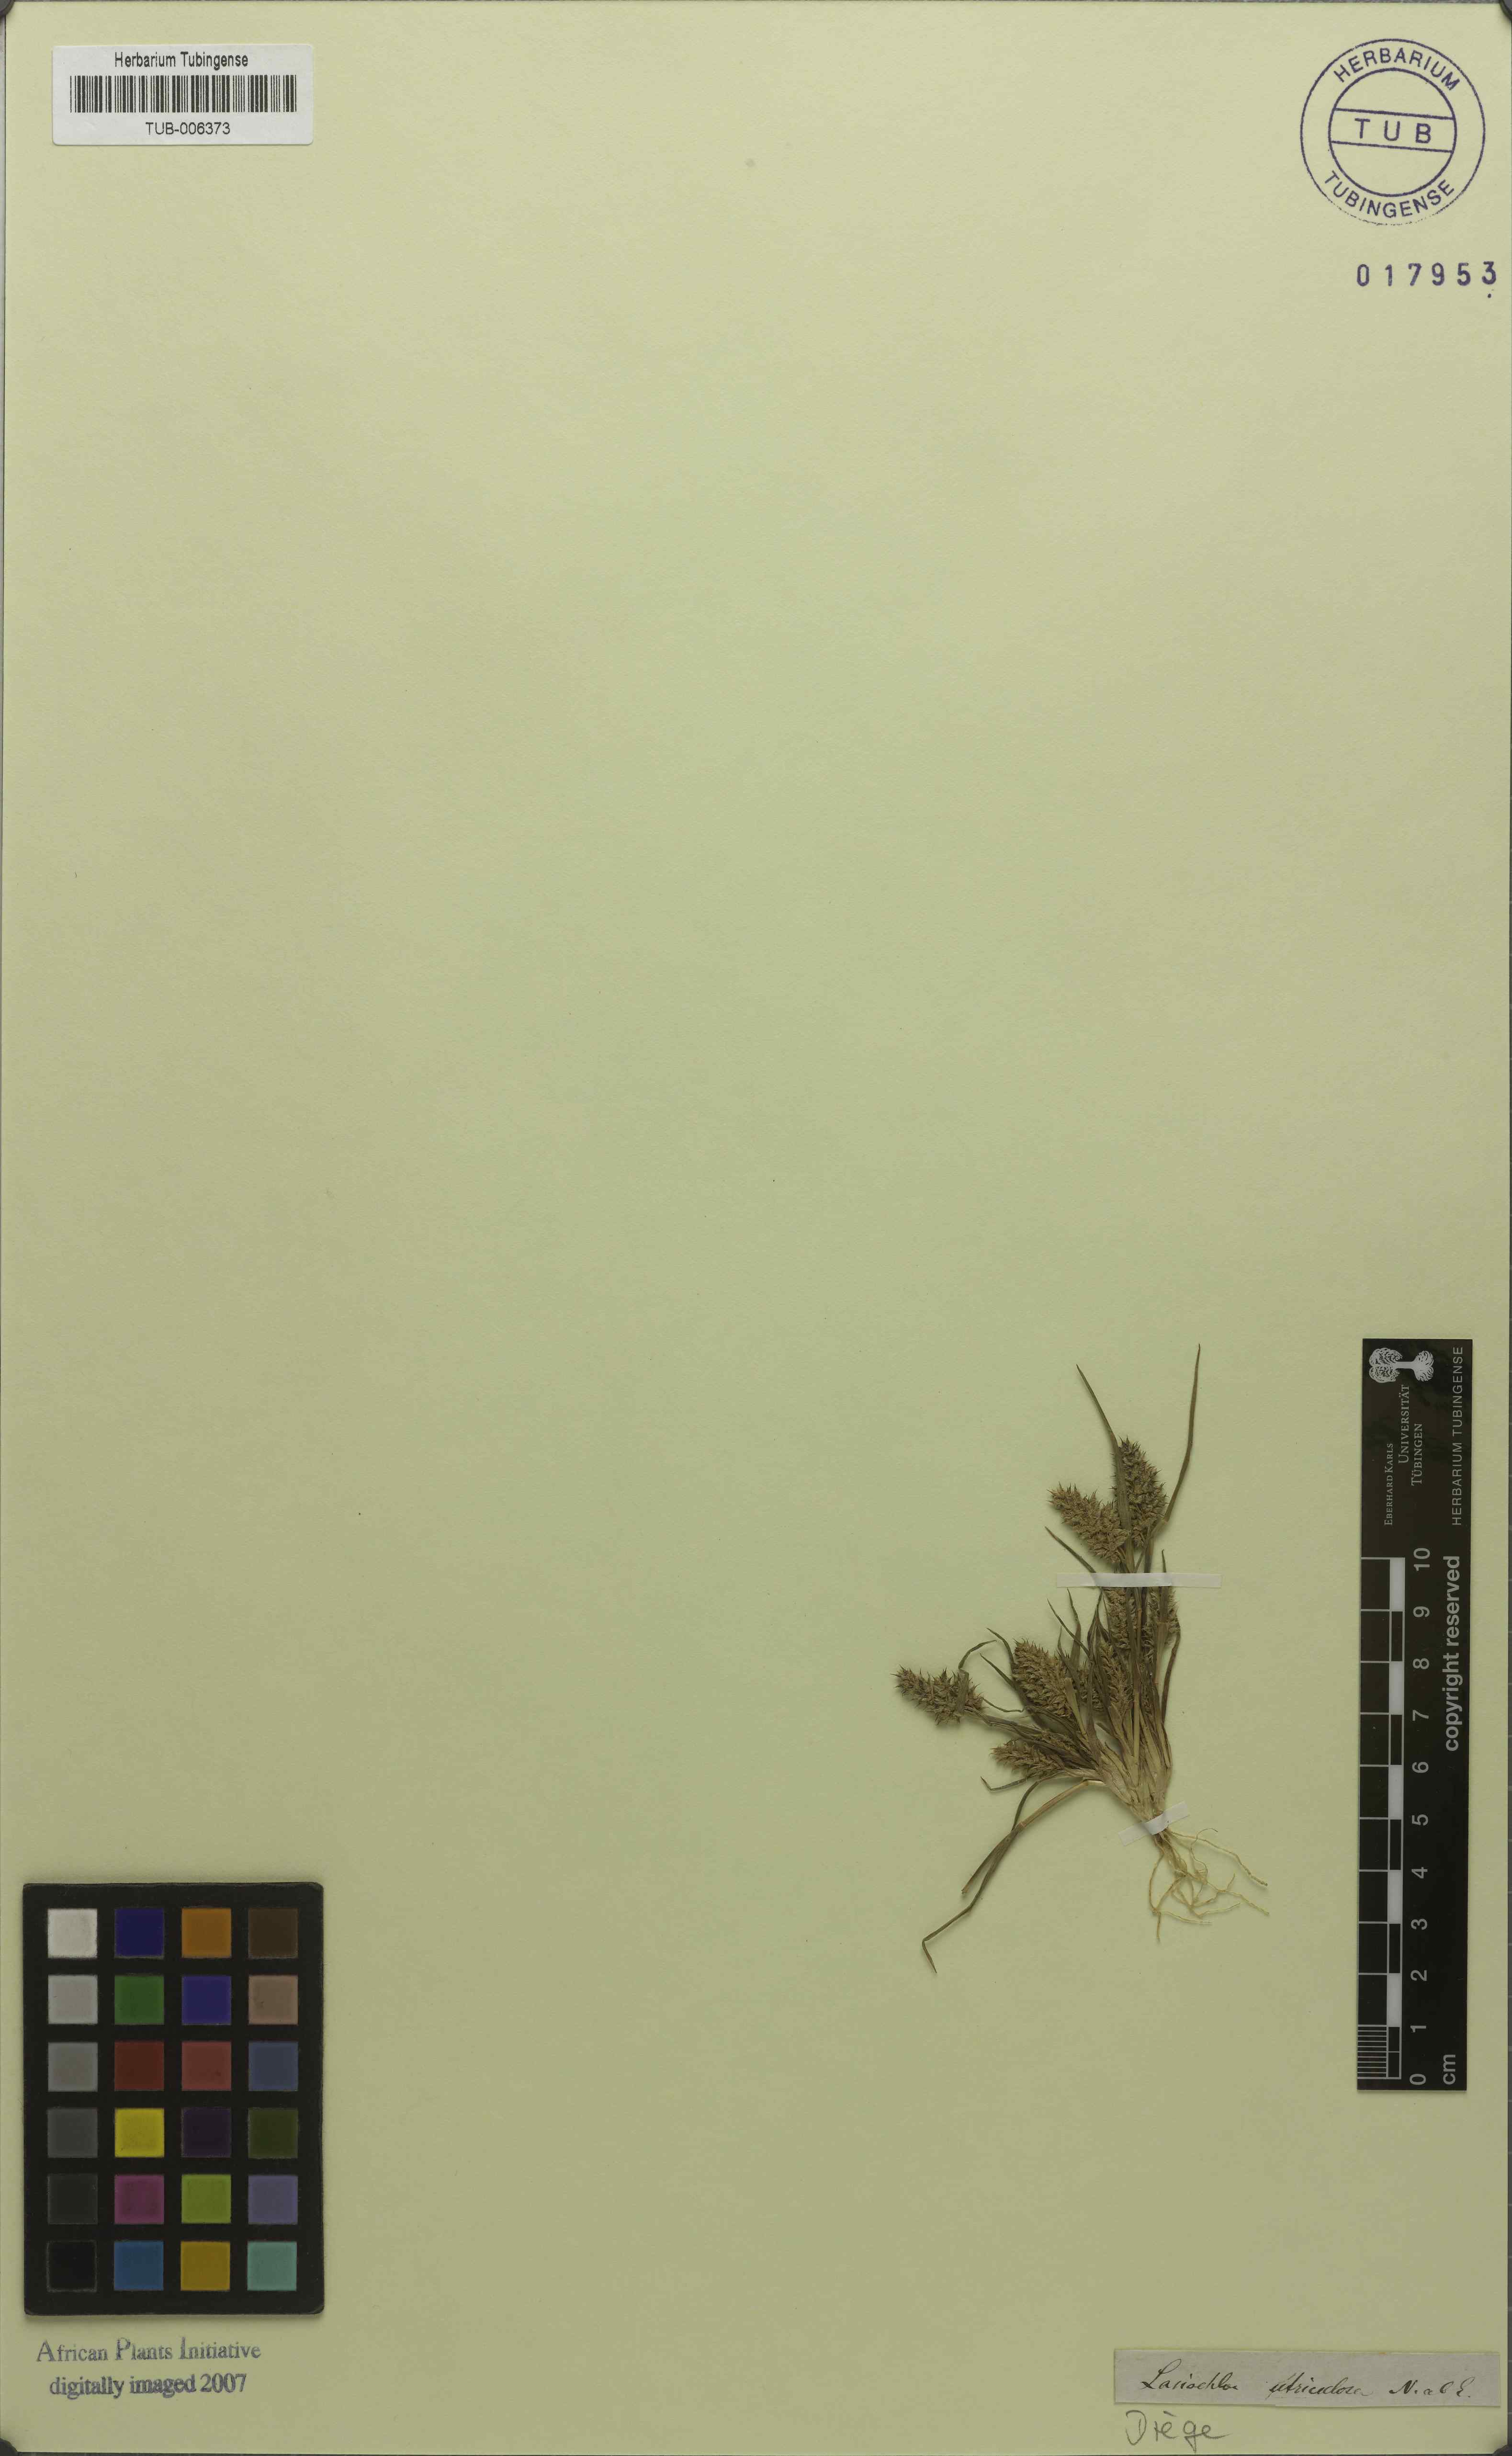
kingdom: Plantae
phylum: Tracheophyta
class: Liliopsida
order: Poales
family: Poaceae
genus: Tribolium
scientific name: Tribolium utriculosum
